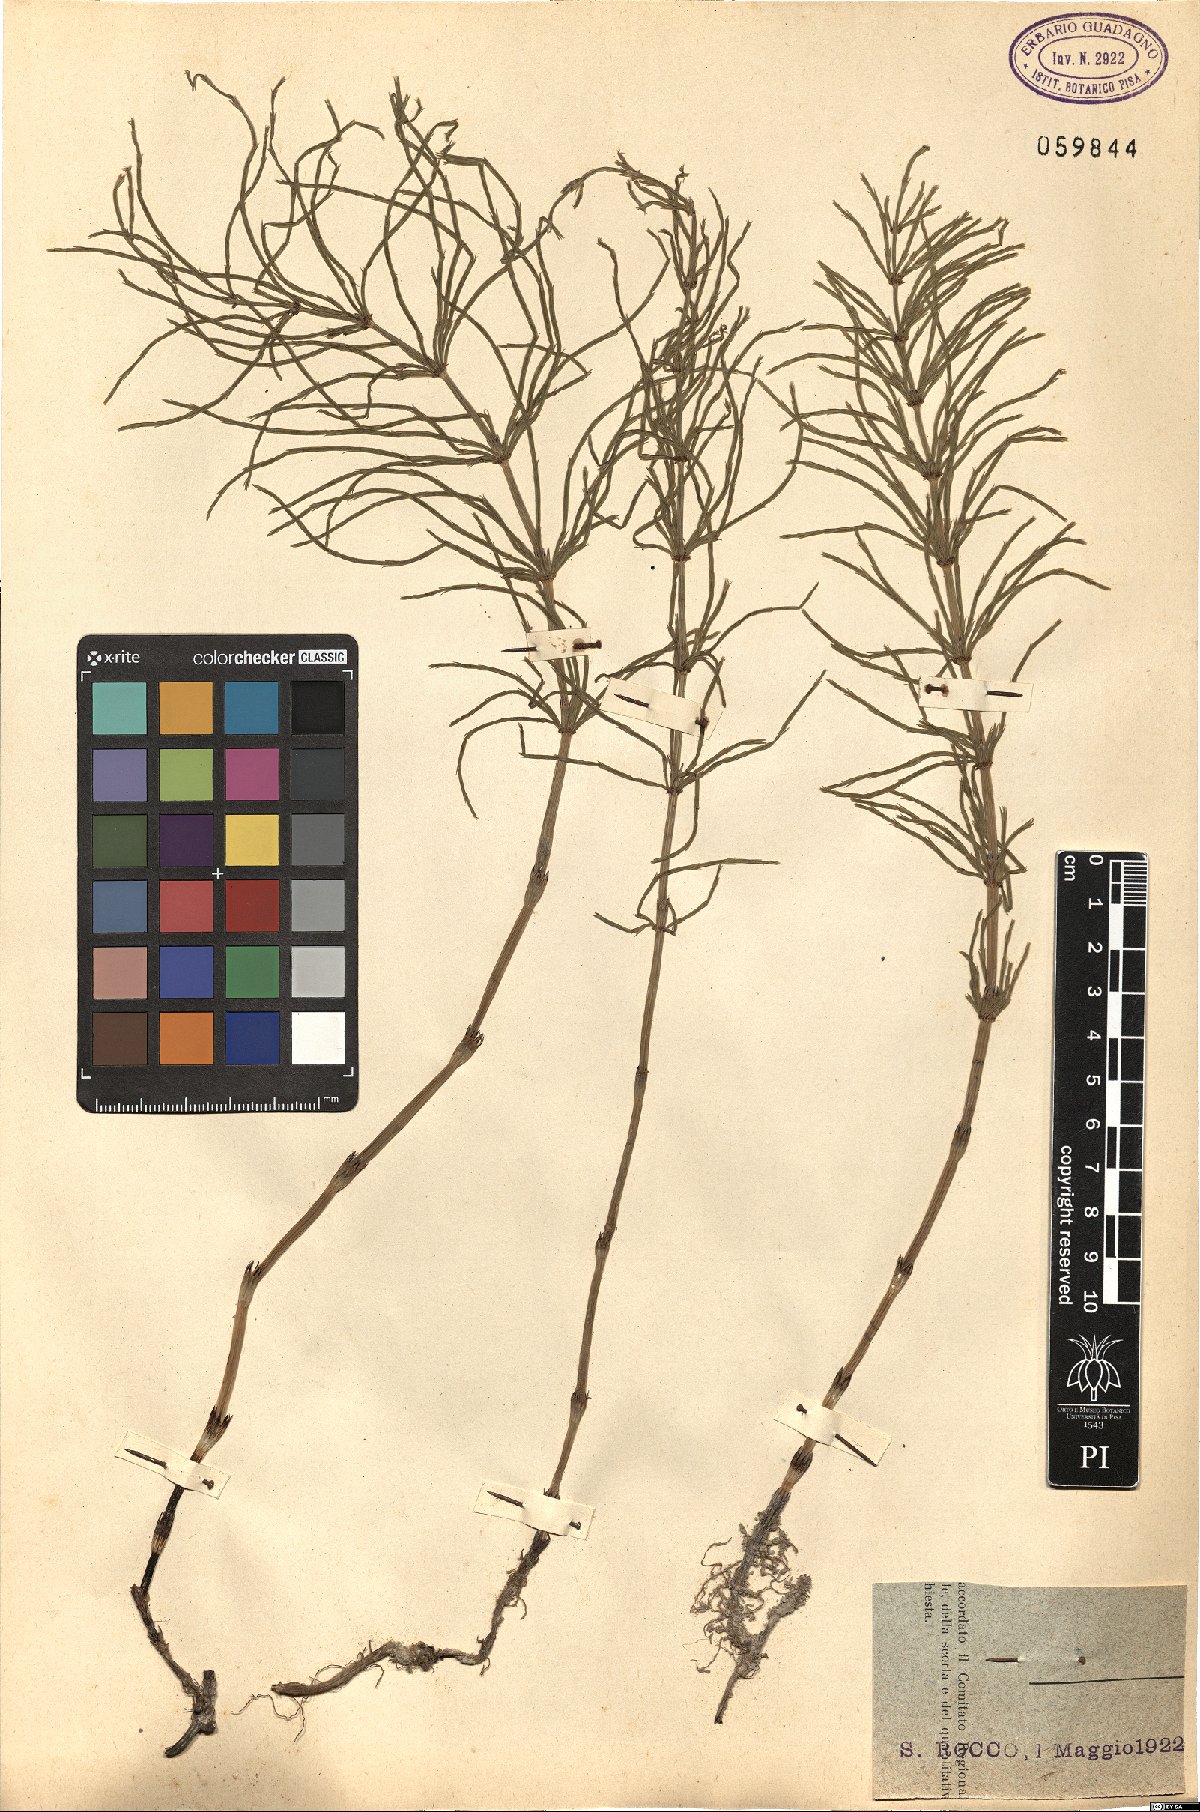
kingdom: Plantae
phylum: Tracheophyta
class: Polypodiopsida
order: Equisetales
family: Equisetaceae
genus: Equisetum
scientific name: Equisetum
